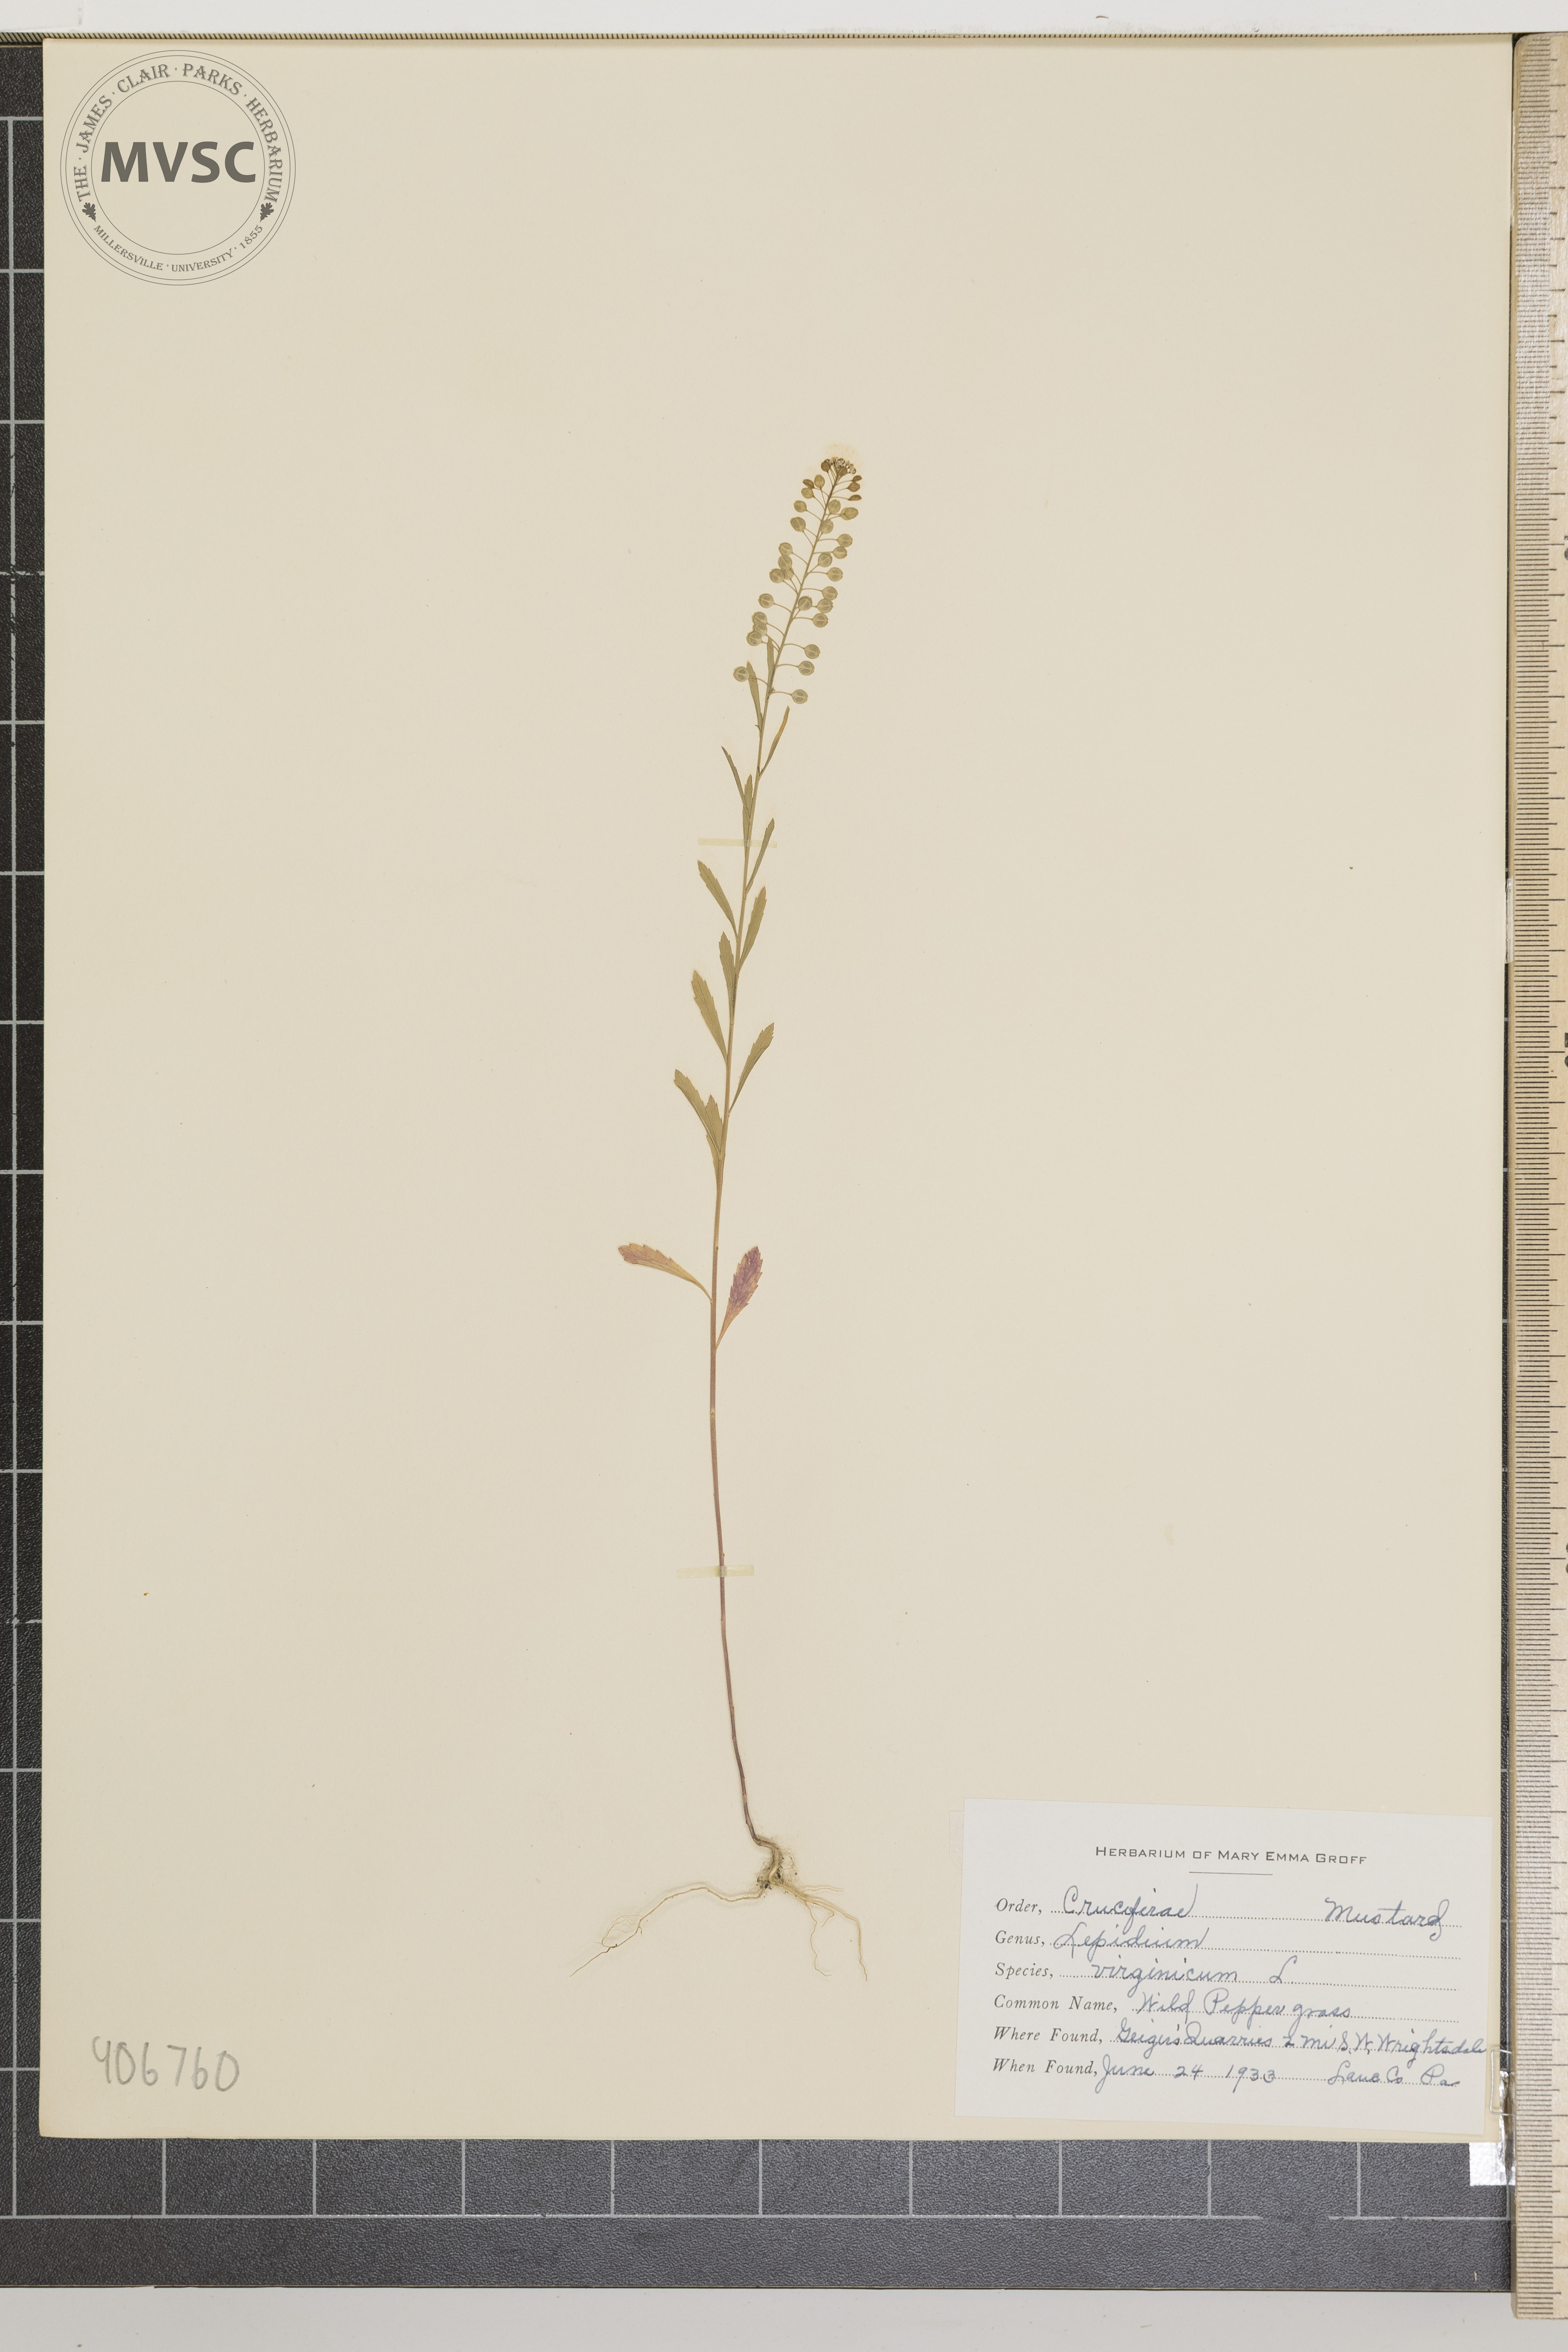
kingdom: Plantae
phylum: Tracheophyta
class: Magnoliopsida
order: Brassicales
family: Brassicaceae
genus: Lepidium
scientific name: Lepidium virginicum
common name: Wild pepper grass
